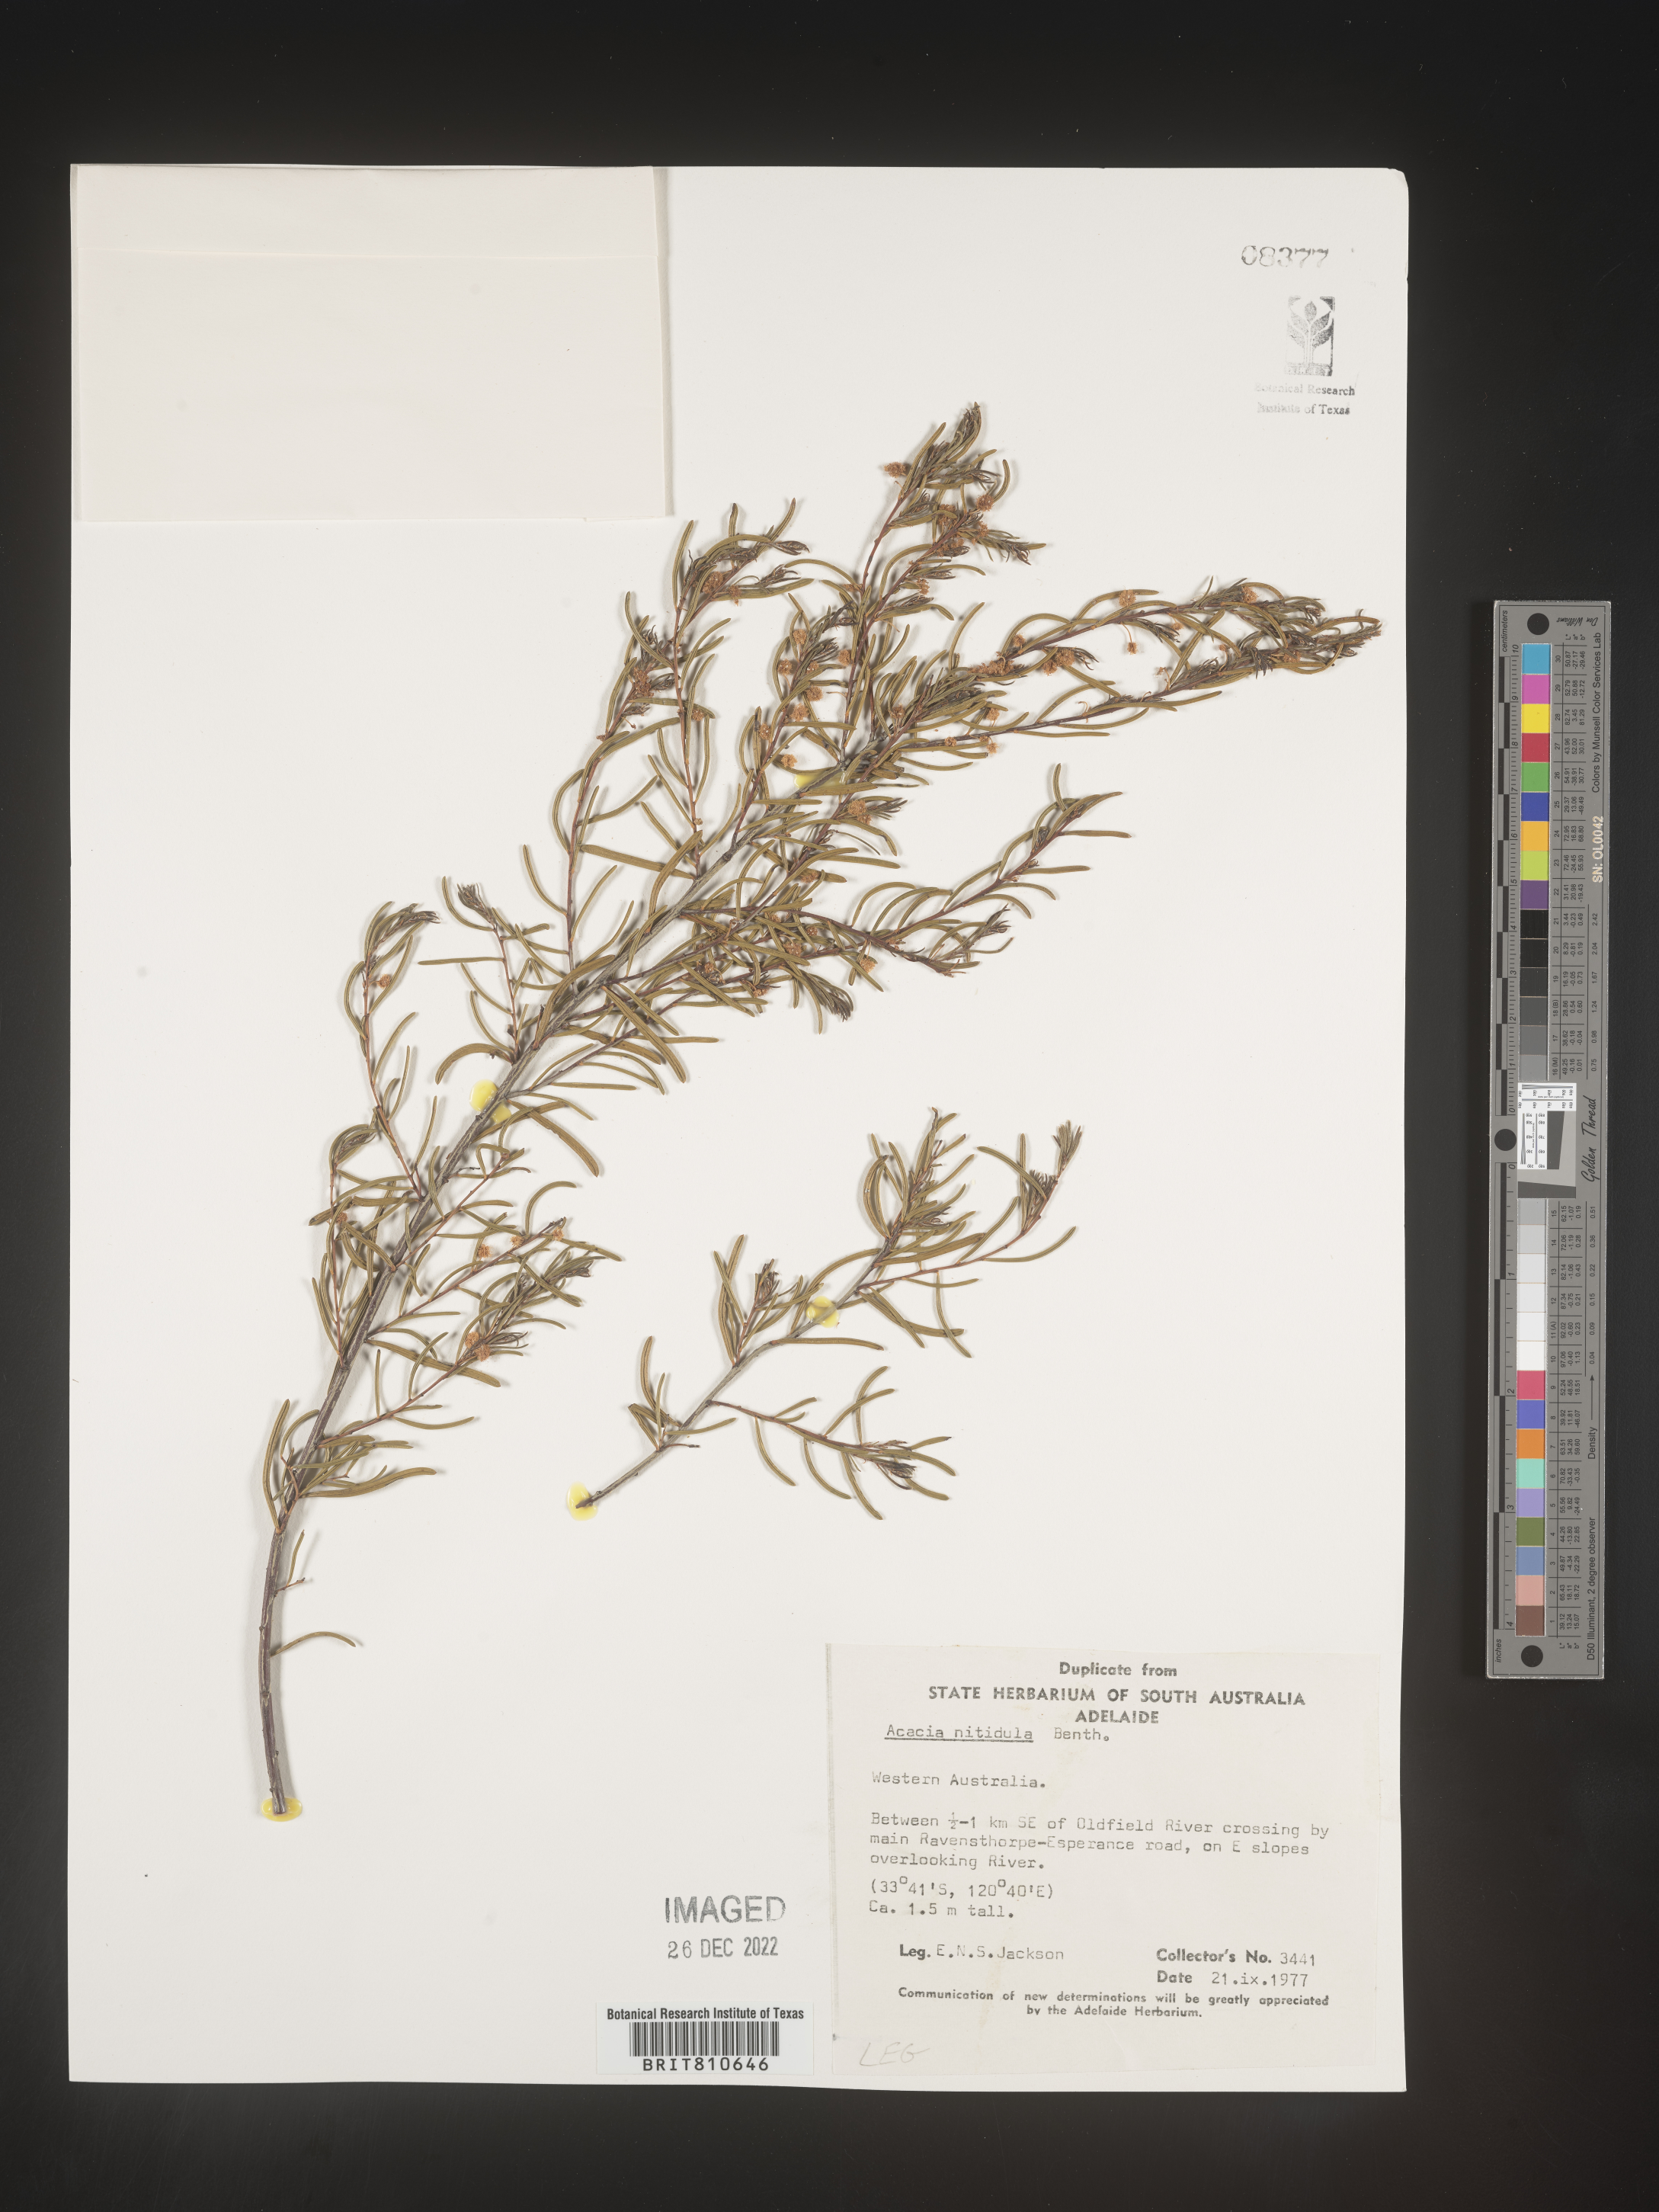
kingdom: Plantae
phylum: Tracheophyta
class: Magnoliopsida
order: Fabales
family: Fabaceae
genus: Acacia
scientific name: Acacia
